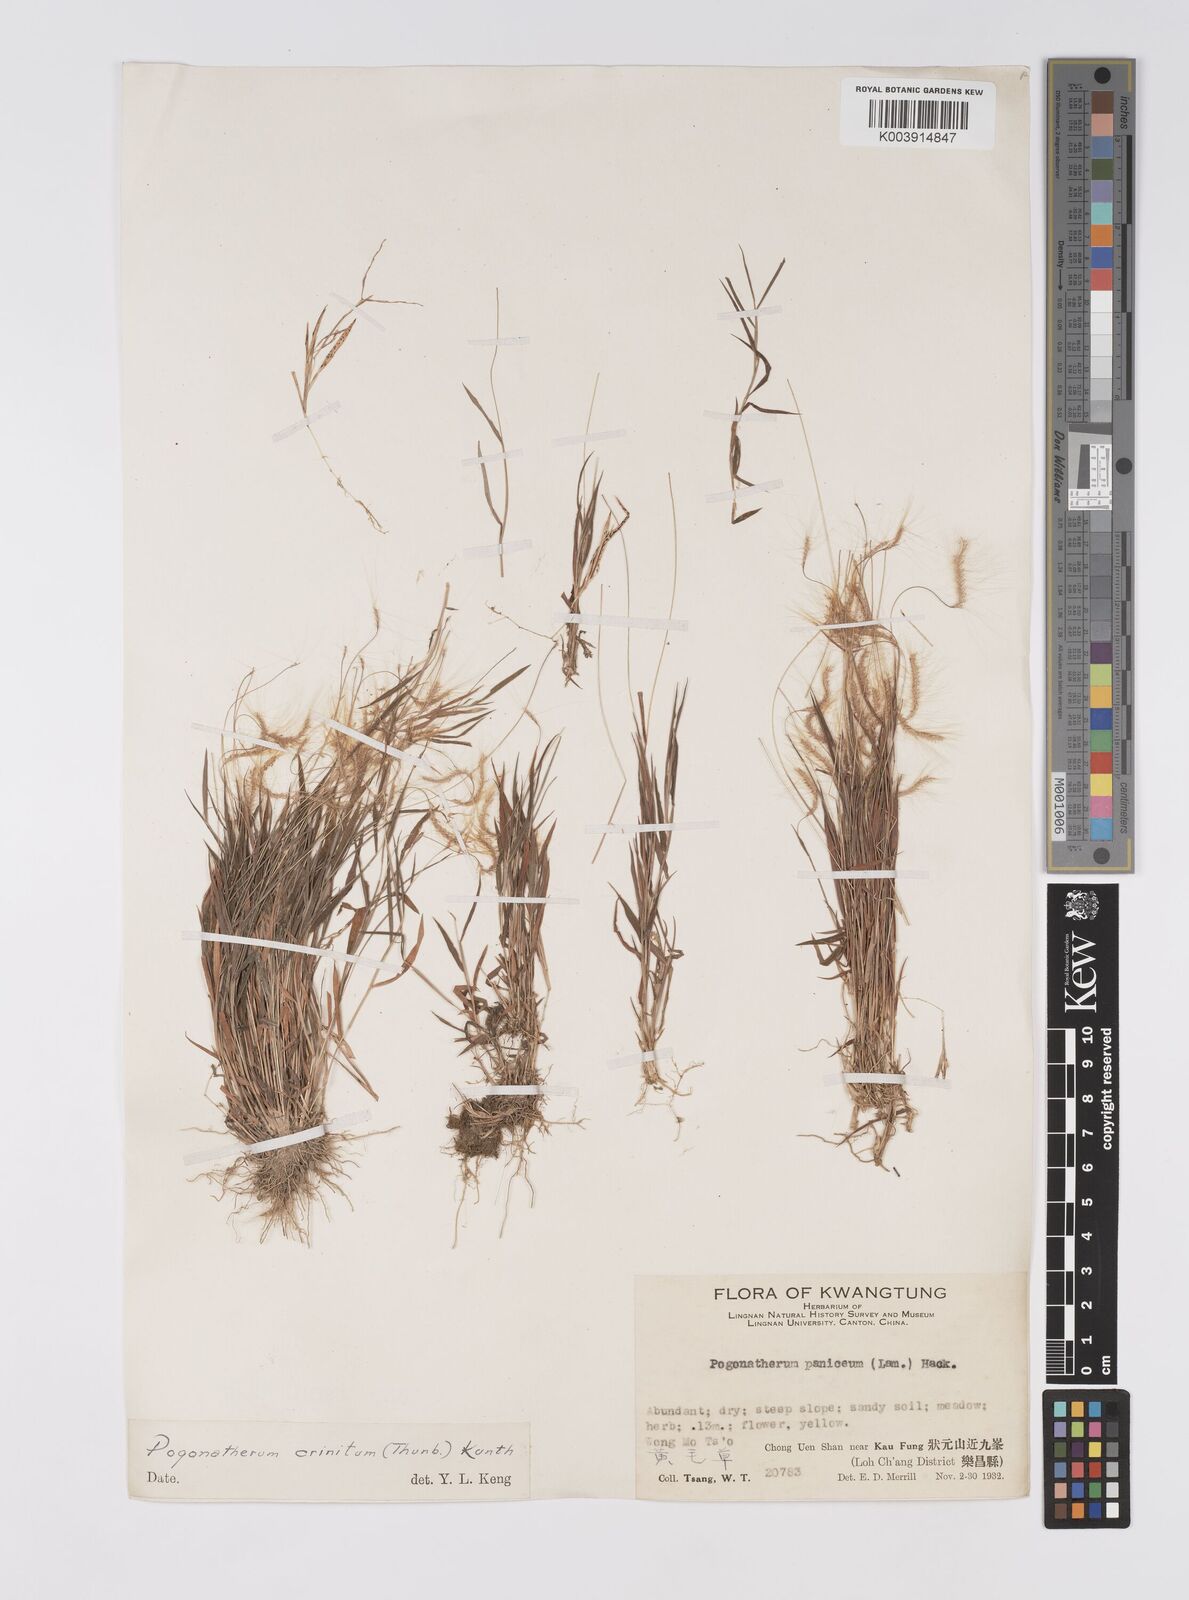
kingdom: Plantae
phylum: Tracheophyta
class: Liliopsida
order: Poales
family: Poaceae
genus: Pogonatherum
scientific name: Pogonatherum crinitum
